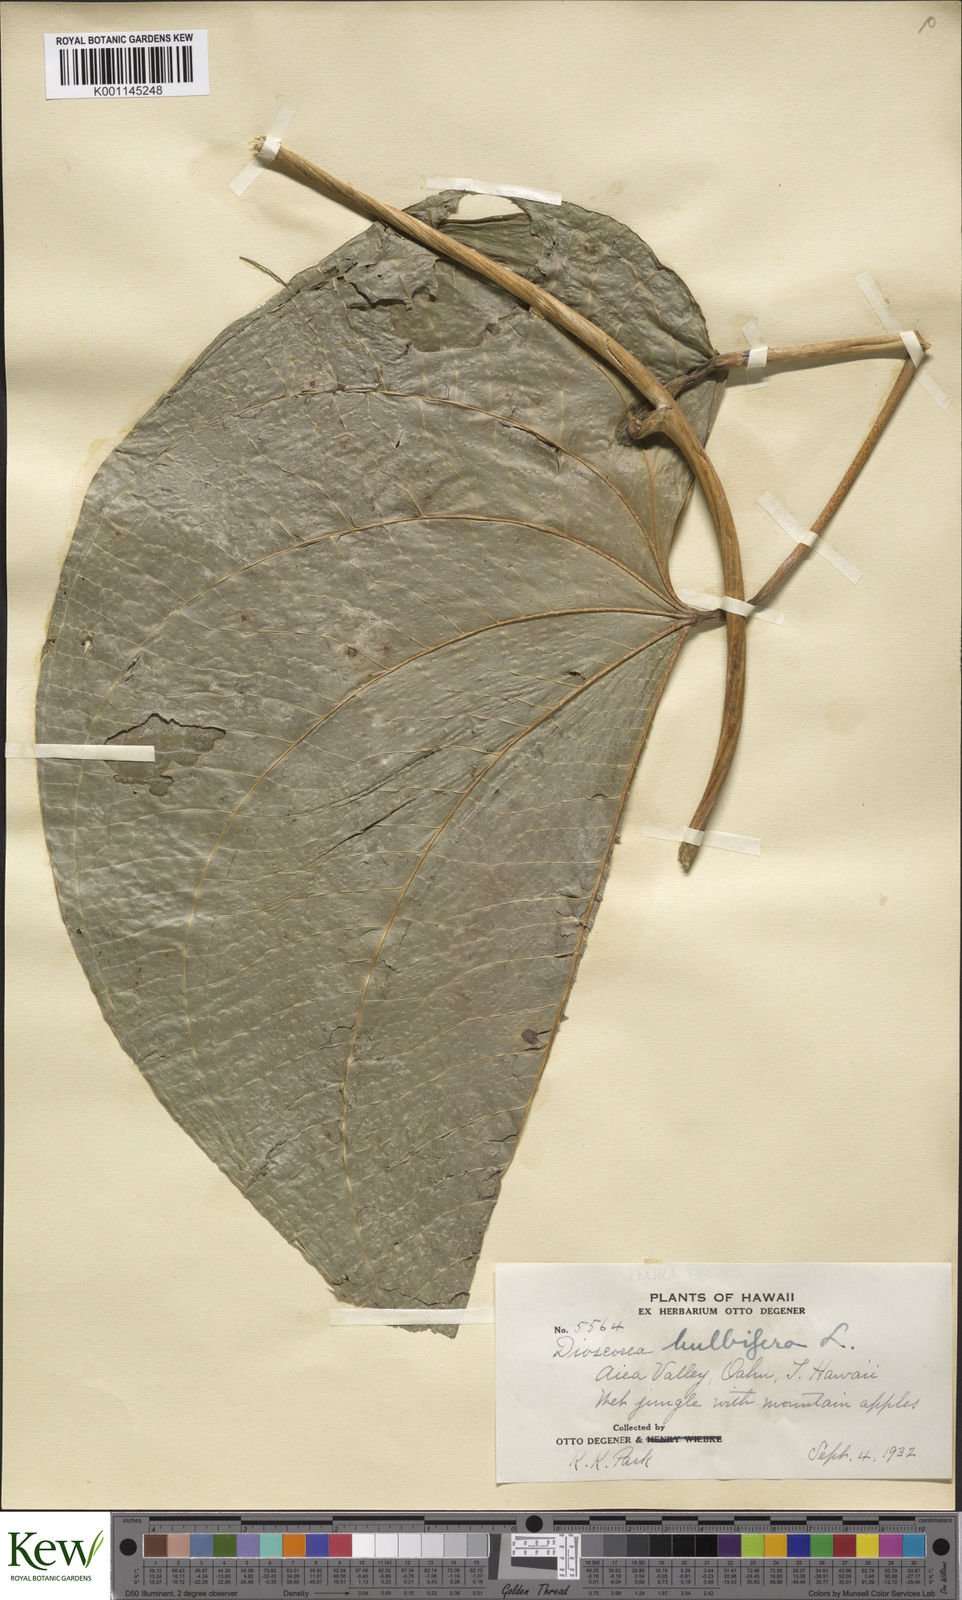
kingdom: Plantae
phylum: Tracheophyta
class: Liliopsida
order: Dioscoreales
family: Dioscoreaceae
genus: Dioscorea
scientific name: Dioscorea bulbifera
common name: Air yam
